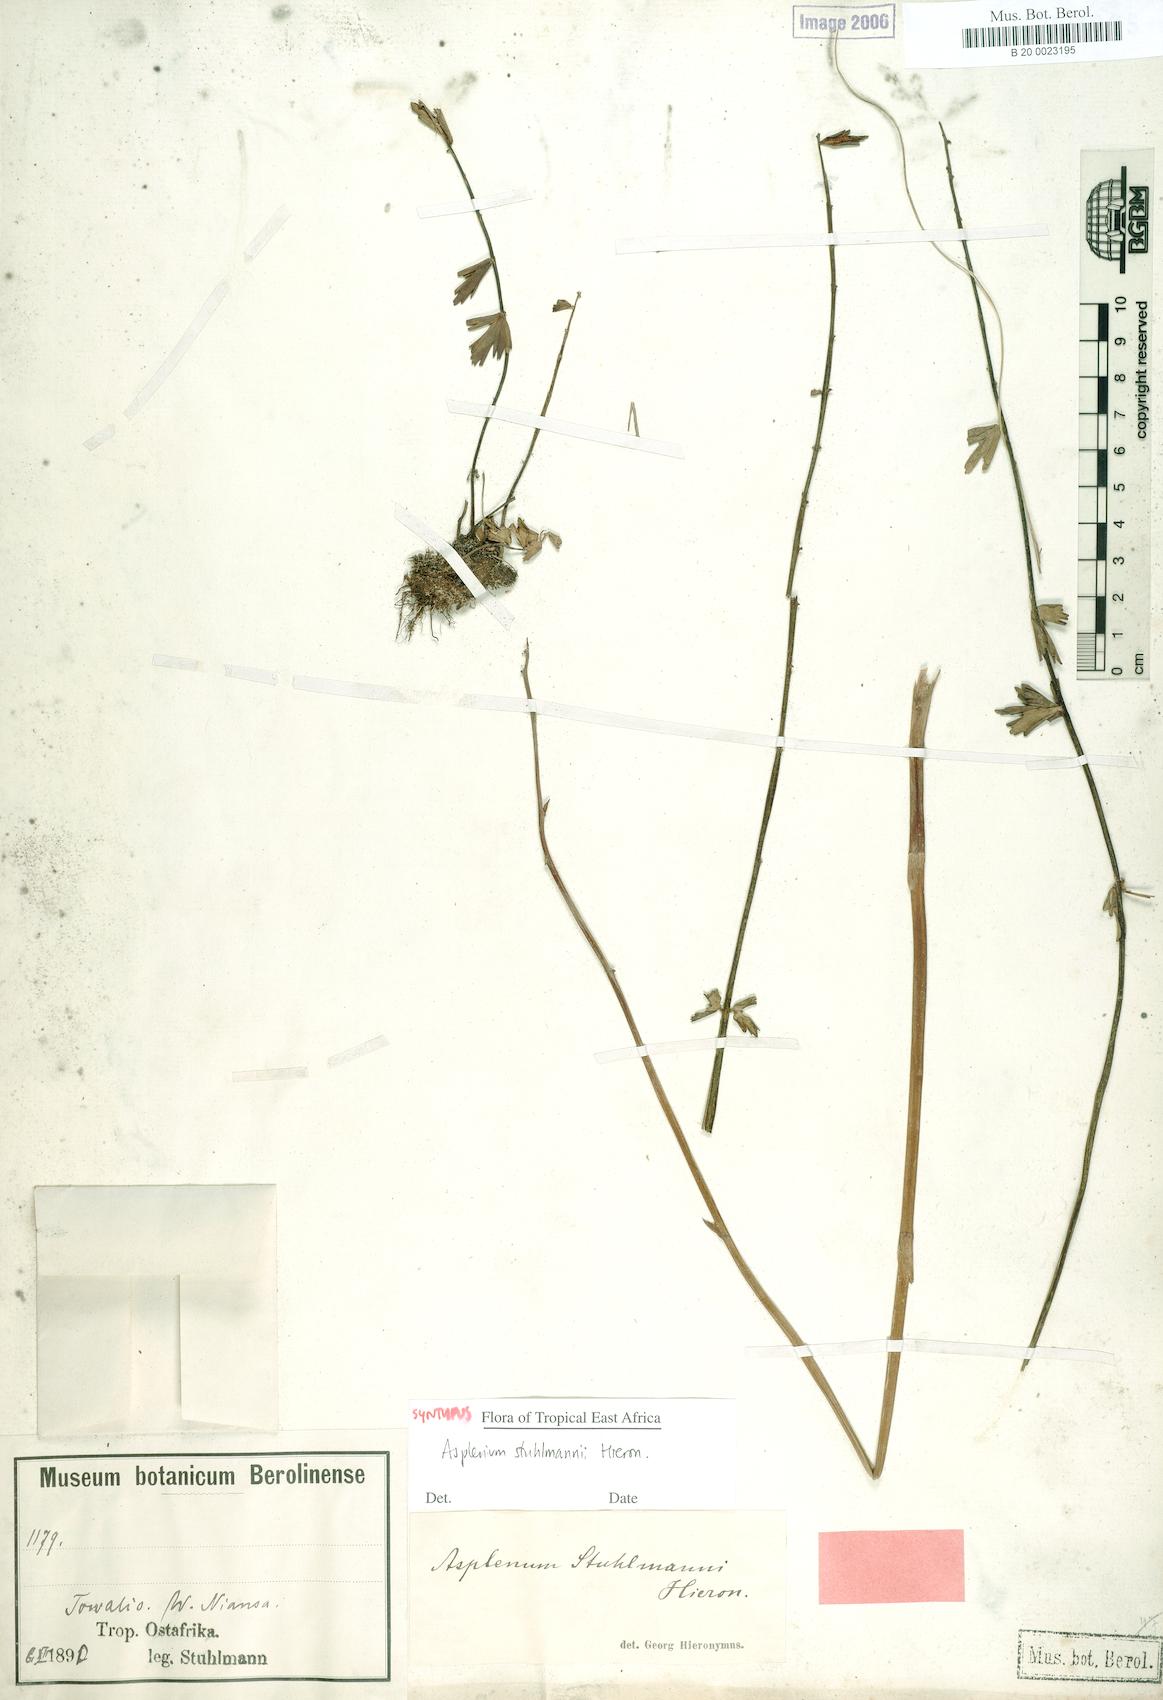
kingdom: Plantae
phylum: Tracheophyta
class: Polypodiopsida
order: Polypodiales
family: Aspleniaceae
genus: Asplenium
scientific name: Asplenium stuhlmannii
